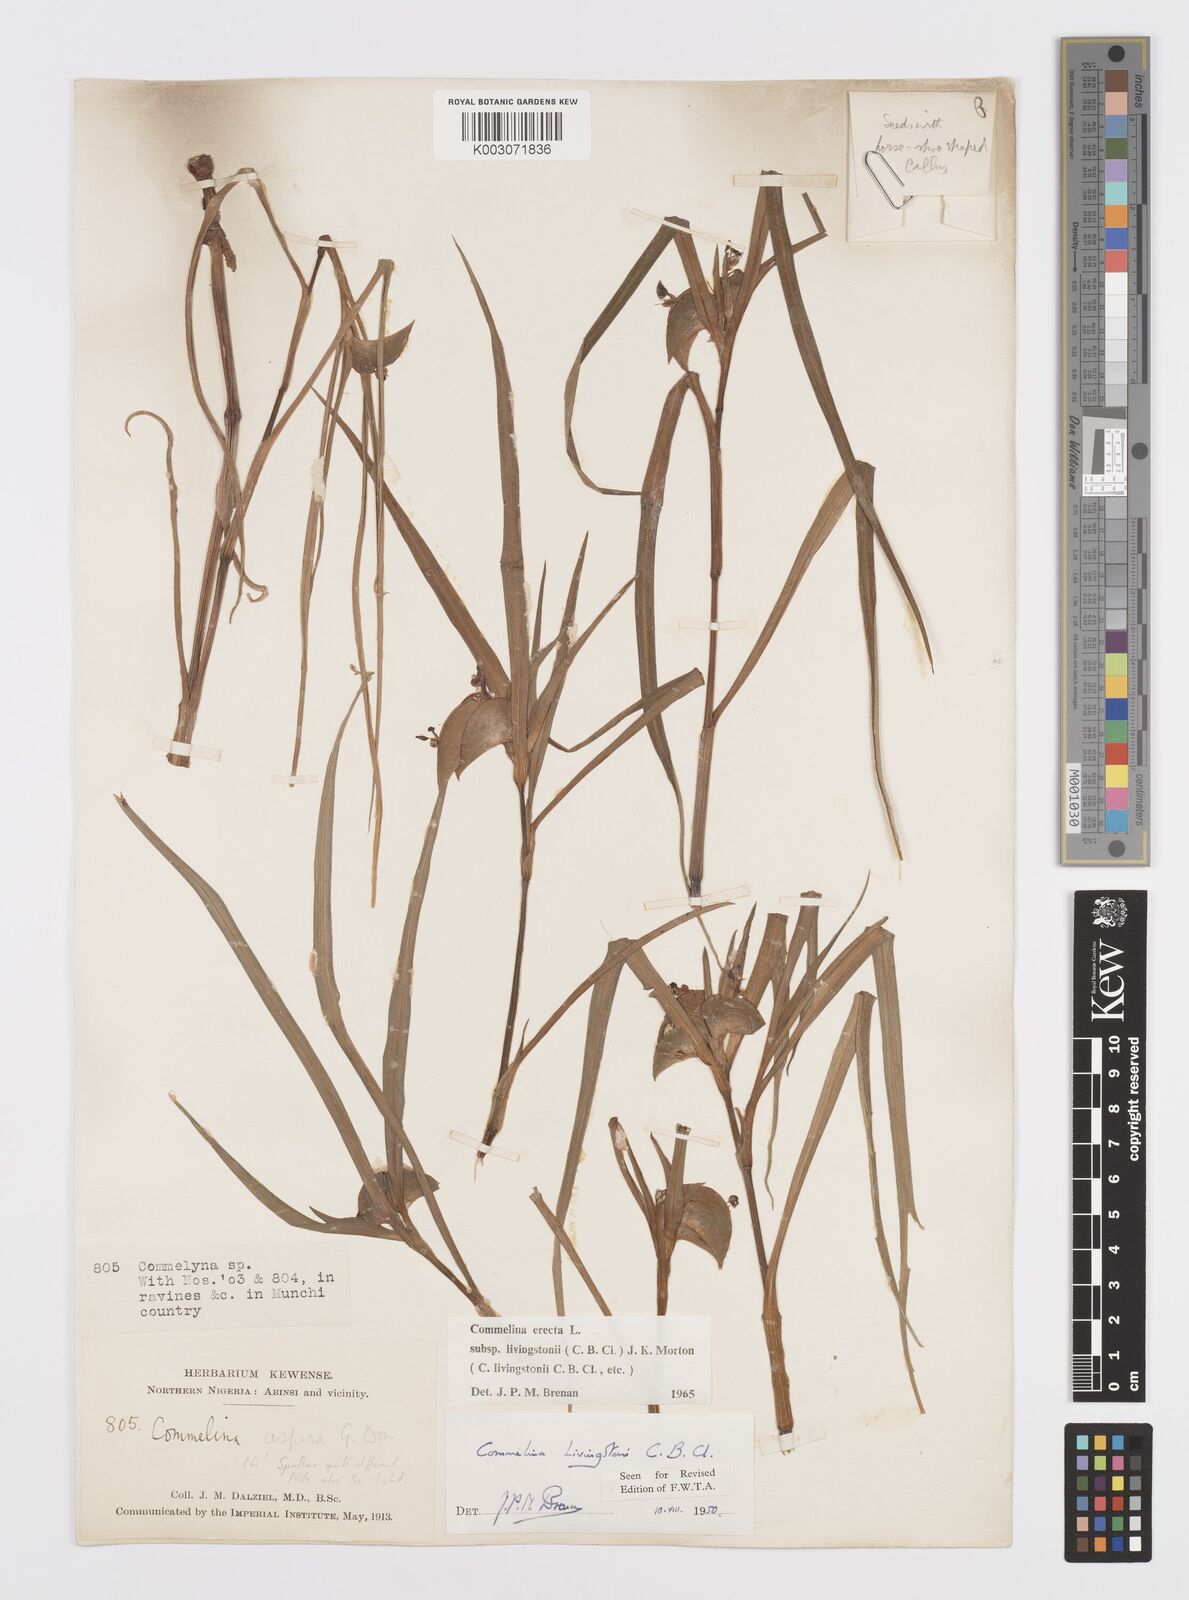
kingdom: Plantae
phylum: Tracheophyta
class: Liliopsida
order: Commelinales
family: Commelinaceae
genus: Commelina
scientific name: Commelina erecta
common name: Blousel blommetjie
